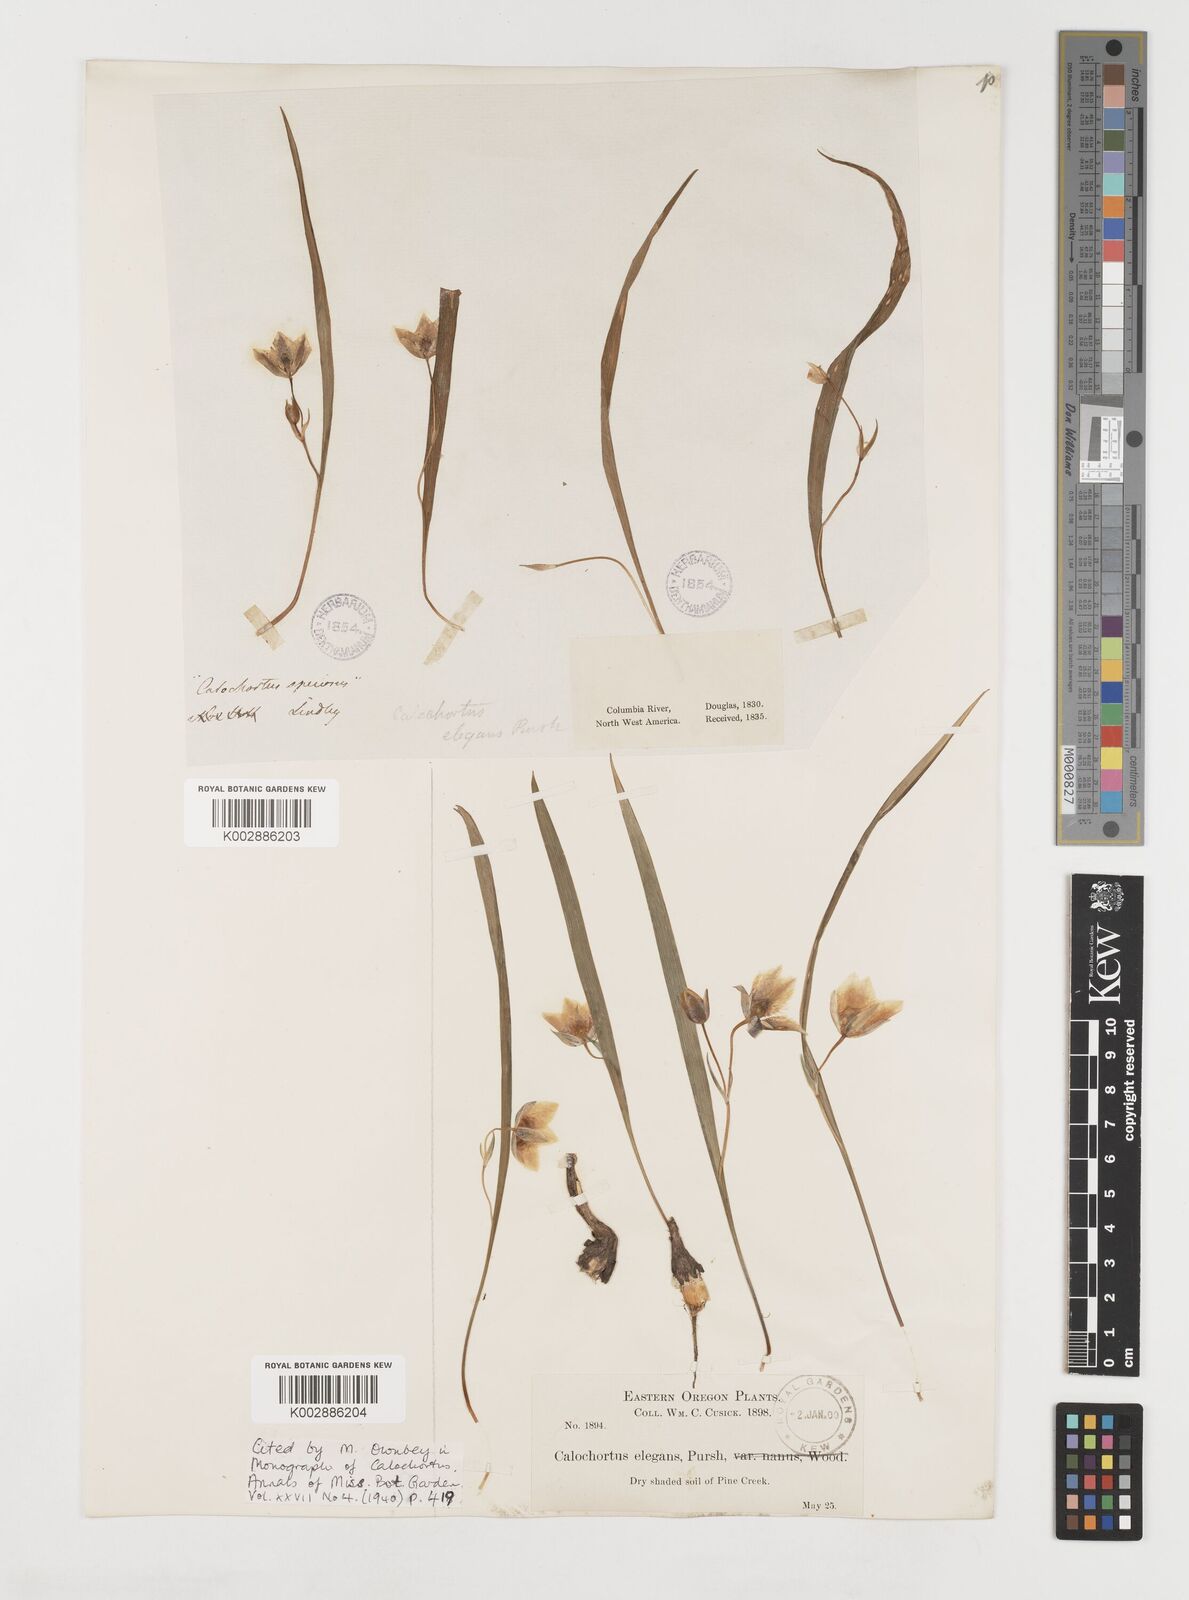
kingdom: Plantae
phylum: Tracheophyta
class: Liliopsida
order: Liliales
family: Liliaceae
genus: Calochortus
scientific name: Calochortus elegans
